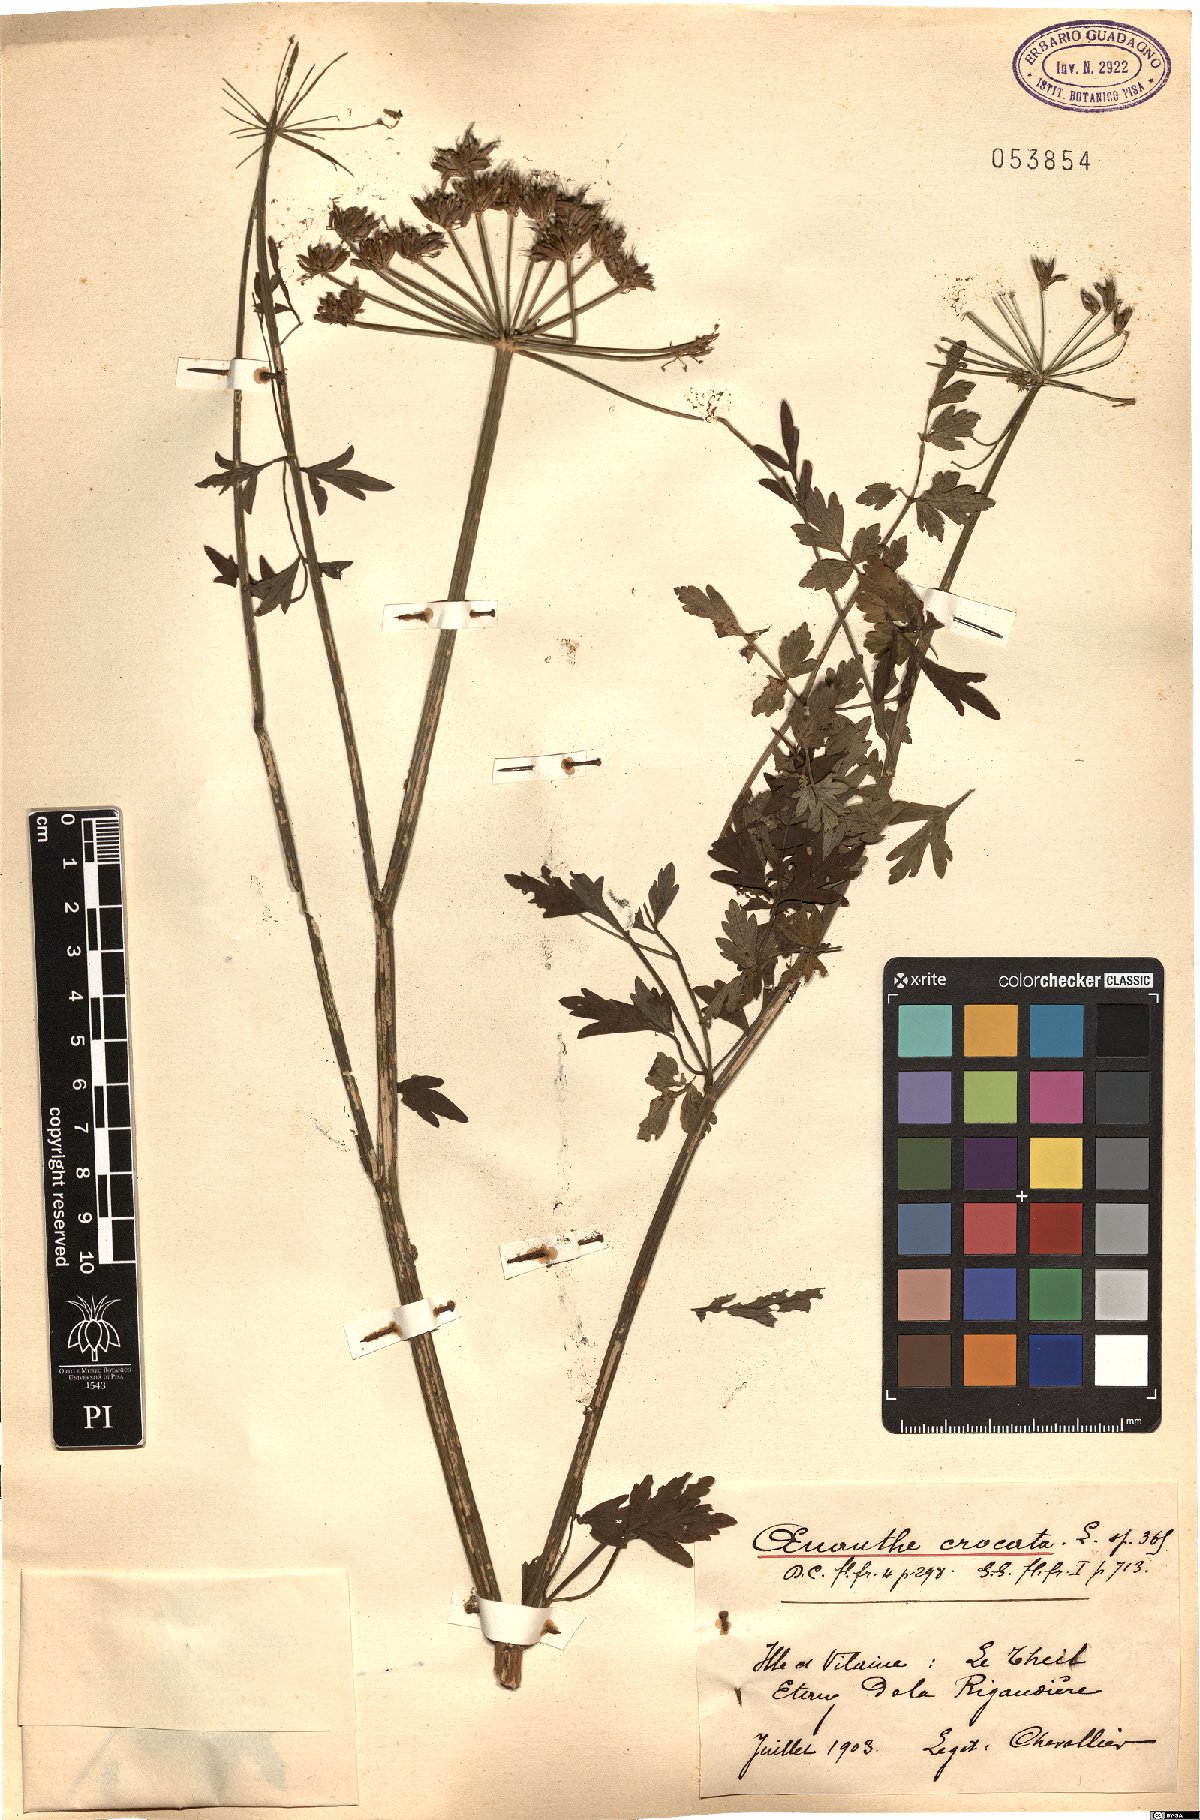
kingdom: Plantae
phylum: Tracheophyta
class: Magnoliopsida
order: Apiales
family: Apiaceae
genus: Oenanthe
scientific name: Oenanthe crocata
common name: Hemlock water-dropwort
